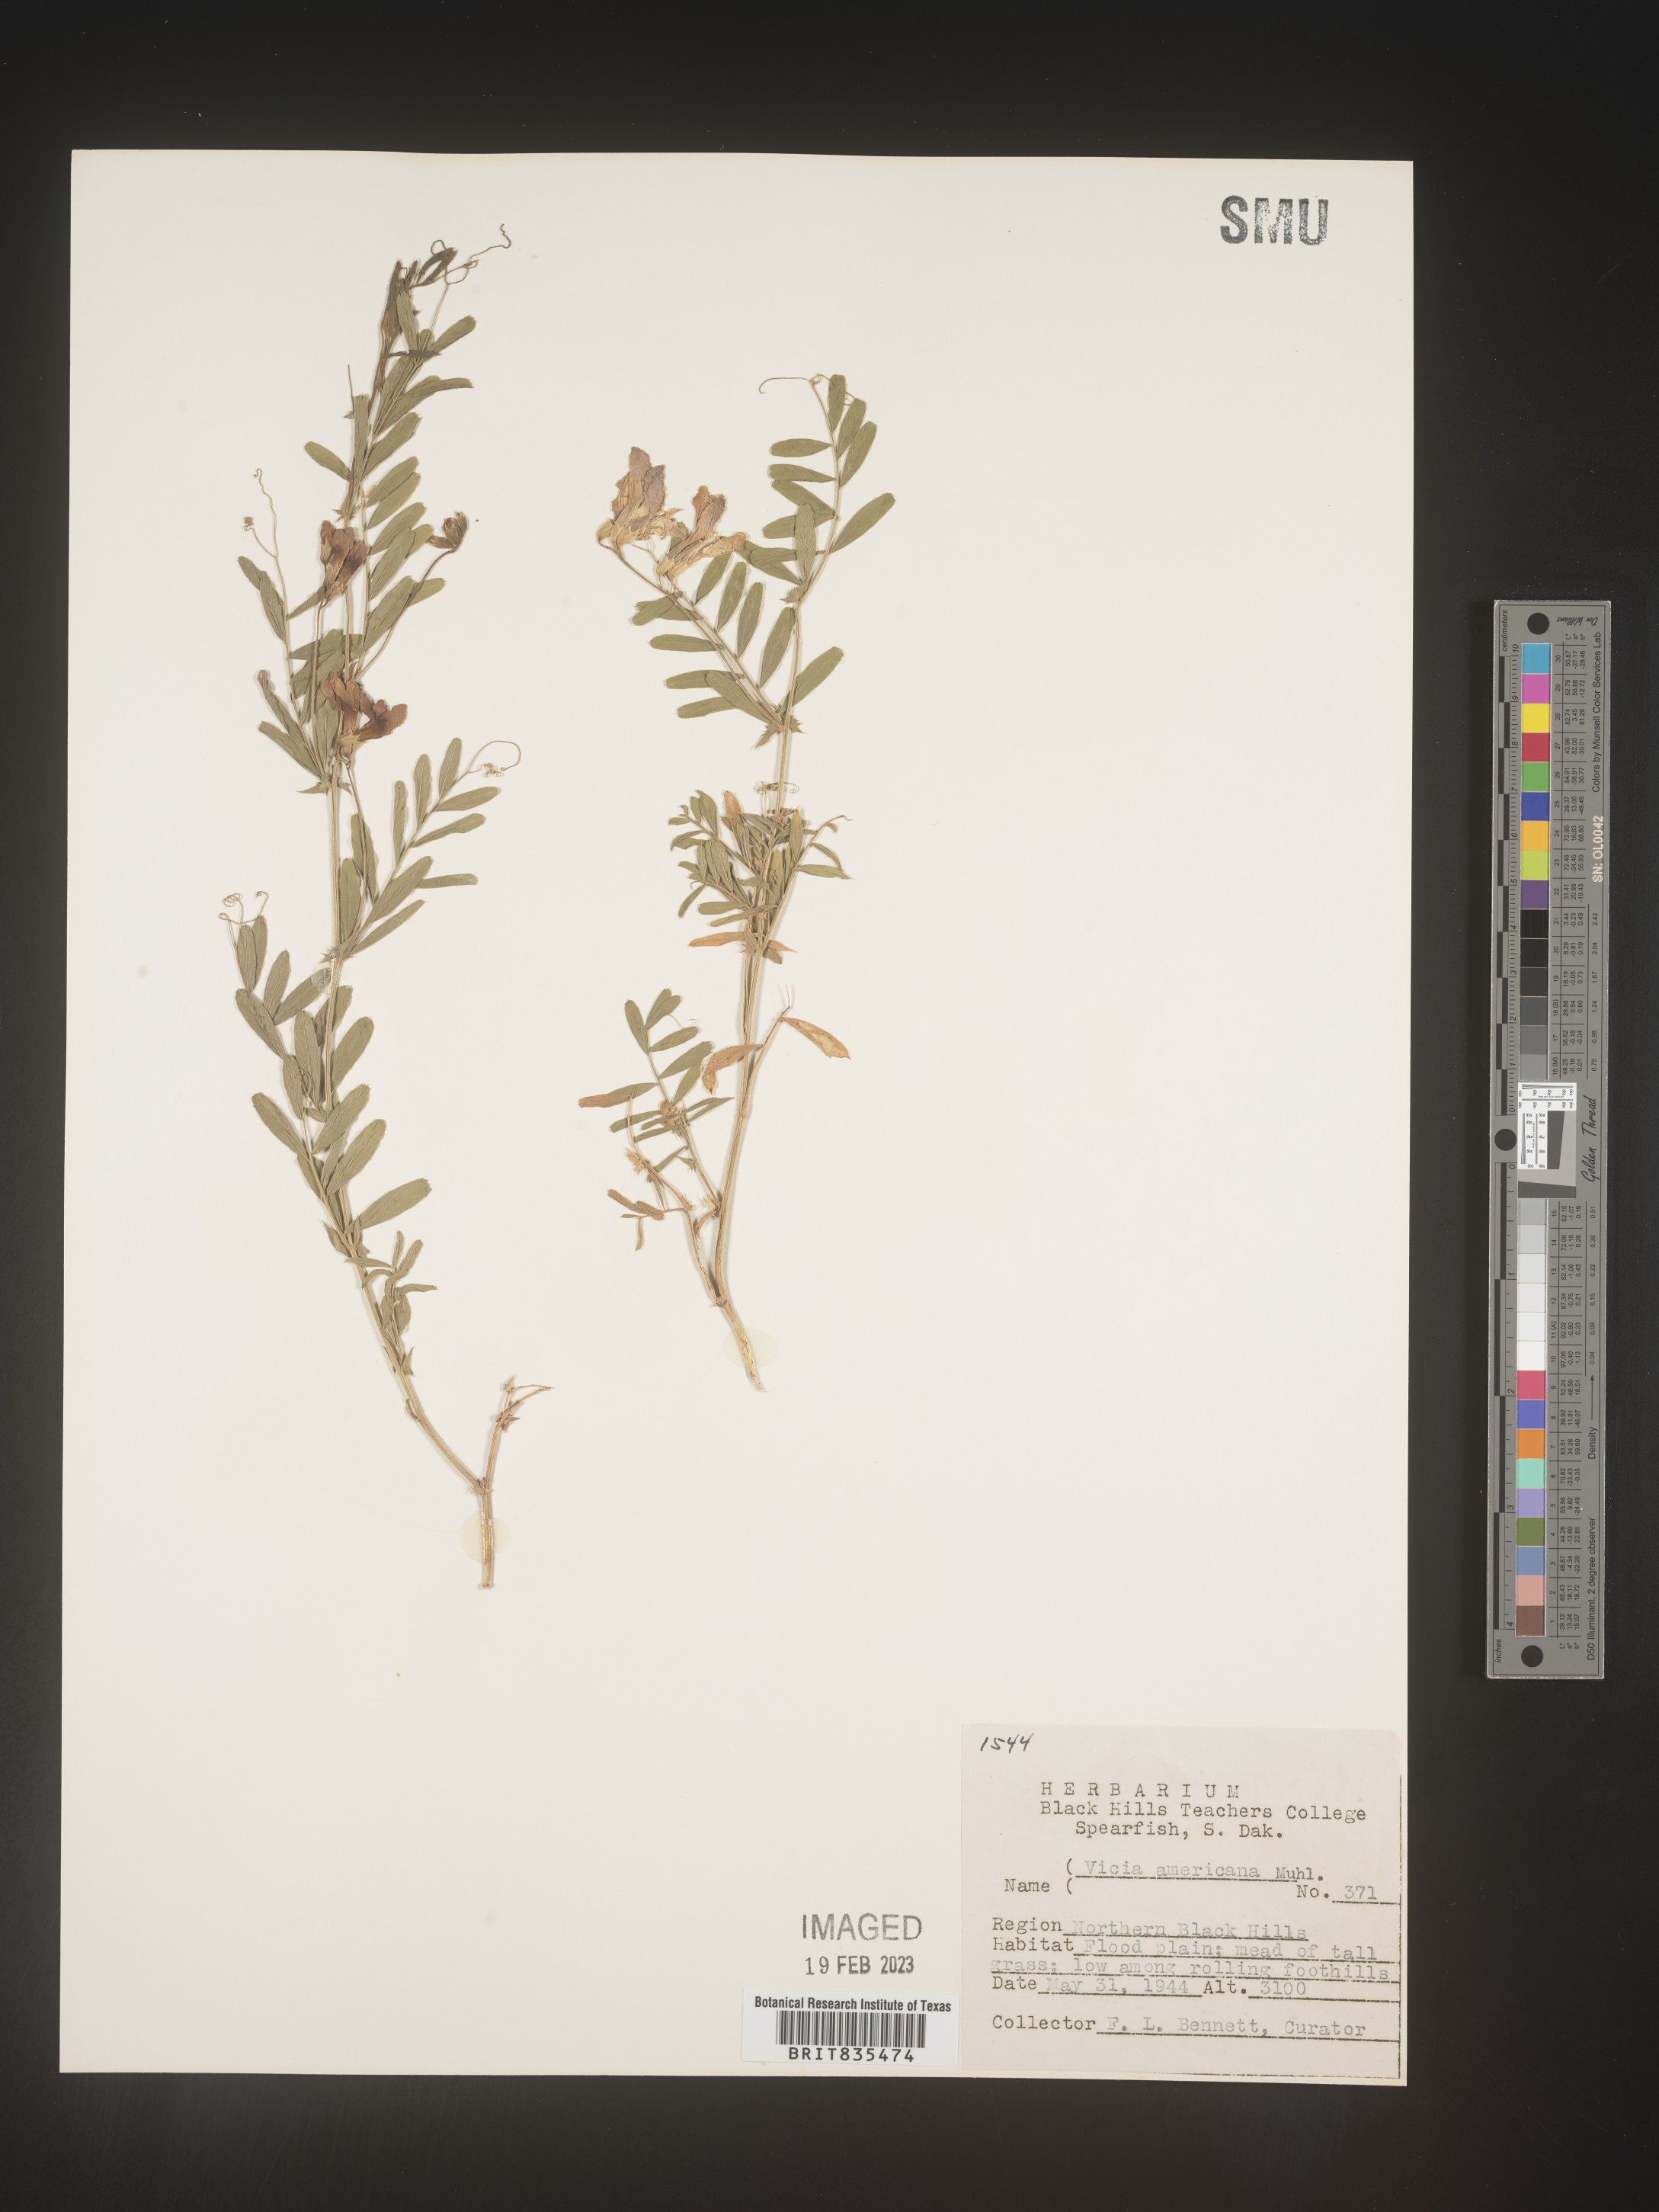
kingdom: Plantae
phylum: Tracheophyta
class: Magnoliopsida
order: Fabales
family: Fabaceae
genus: Vicia
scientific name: Vicia americana
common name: American vetch
